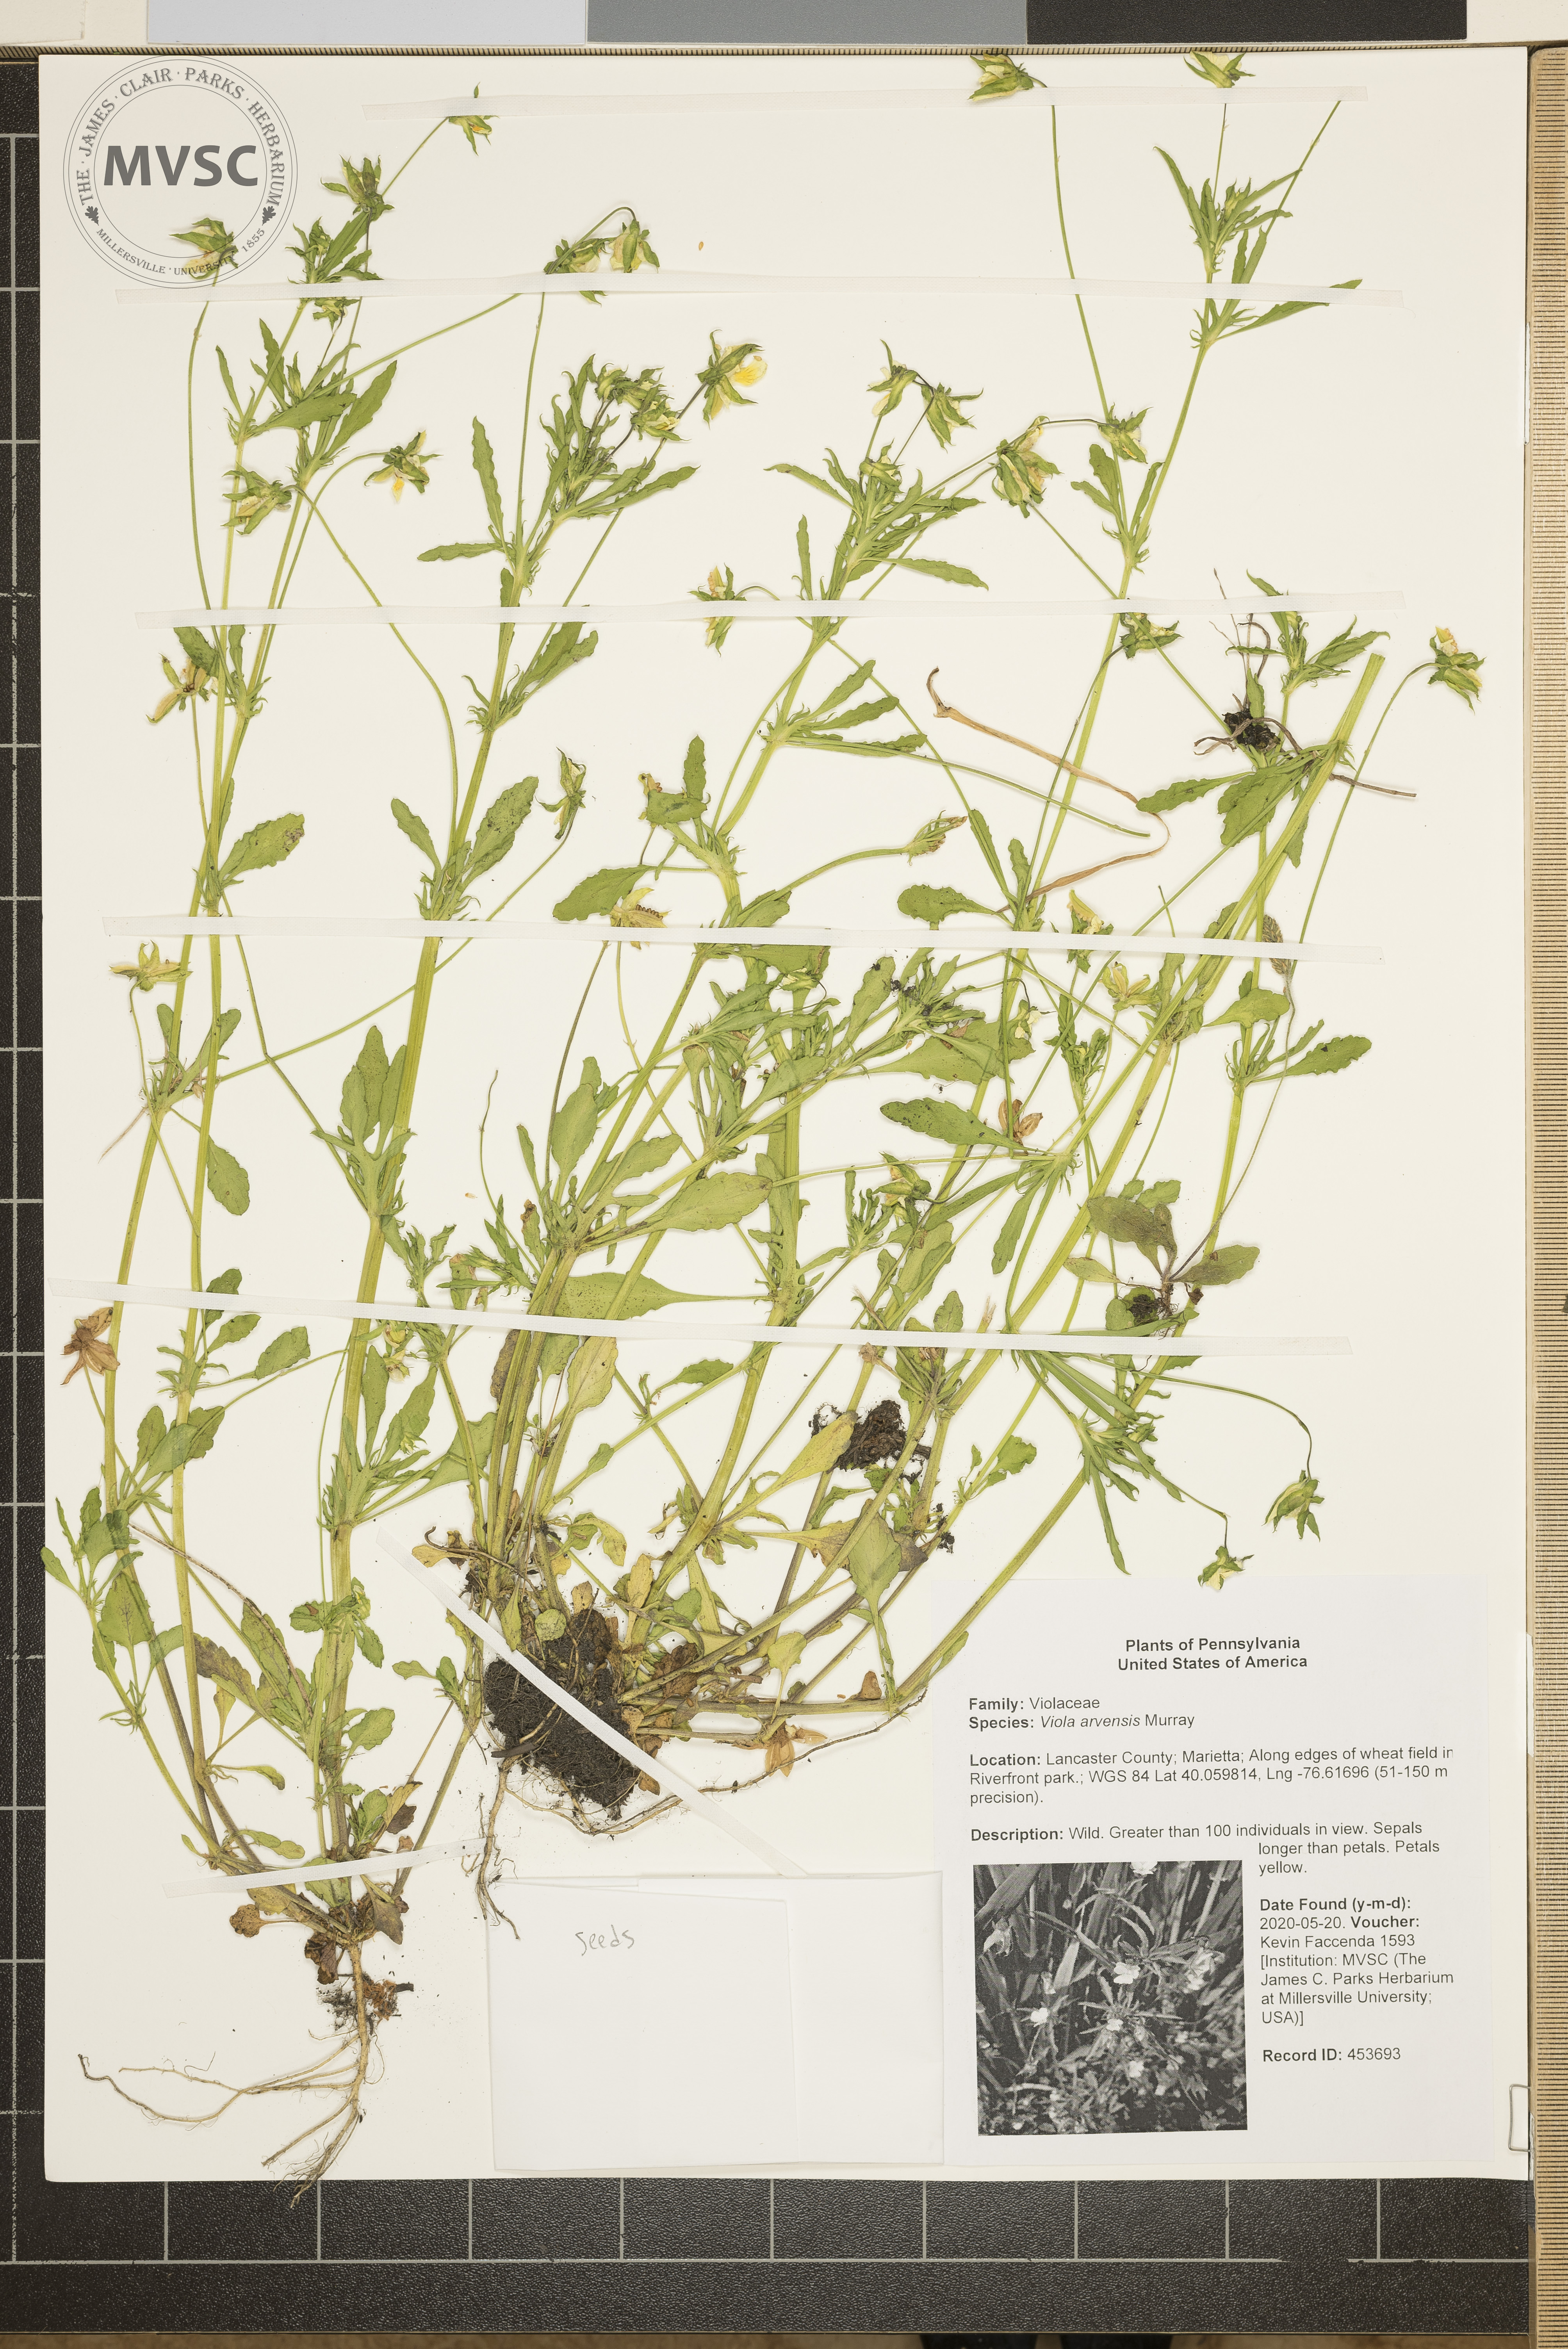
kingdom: Plantae
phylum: Tracheophyta
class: Magnoliopsida
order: Malpighiales
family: Violaceae
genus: Viola
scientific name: Viola arvensis
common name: Field pansy
